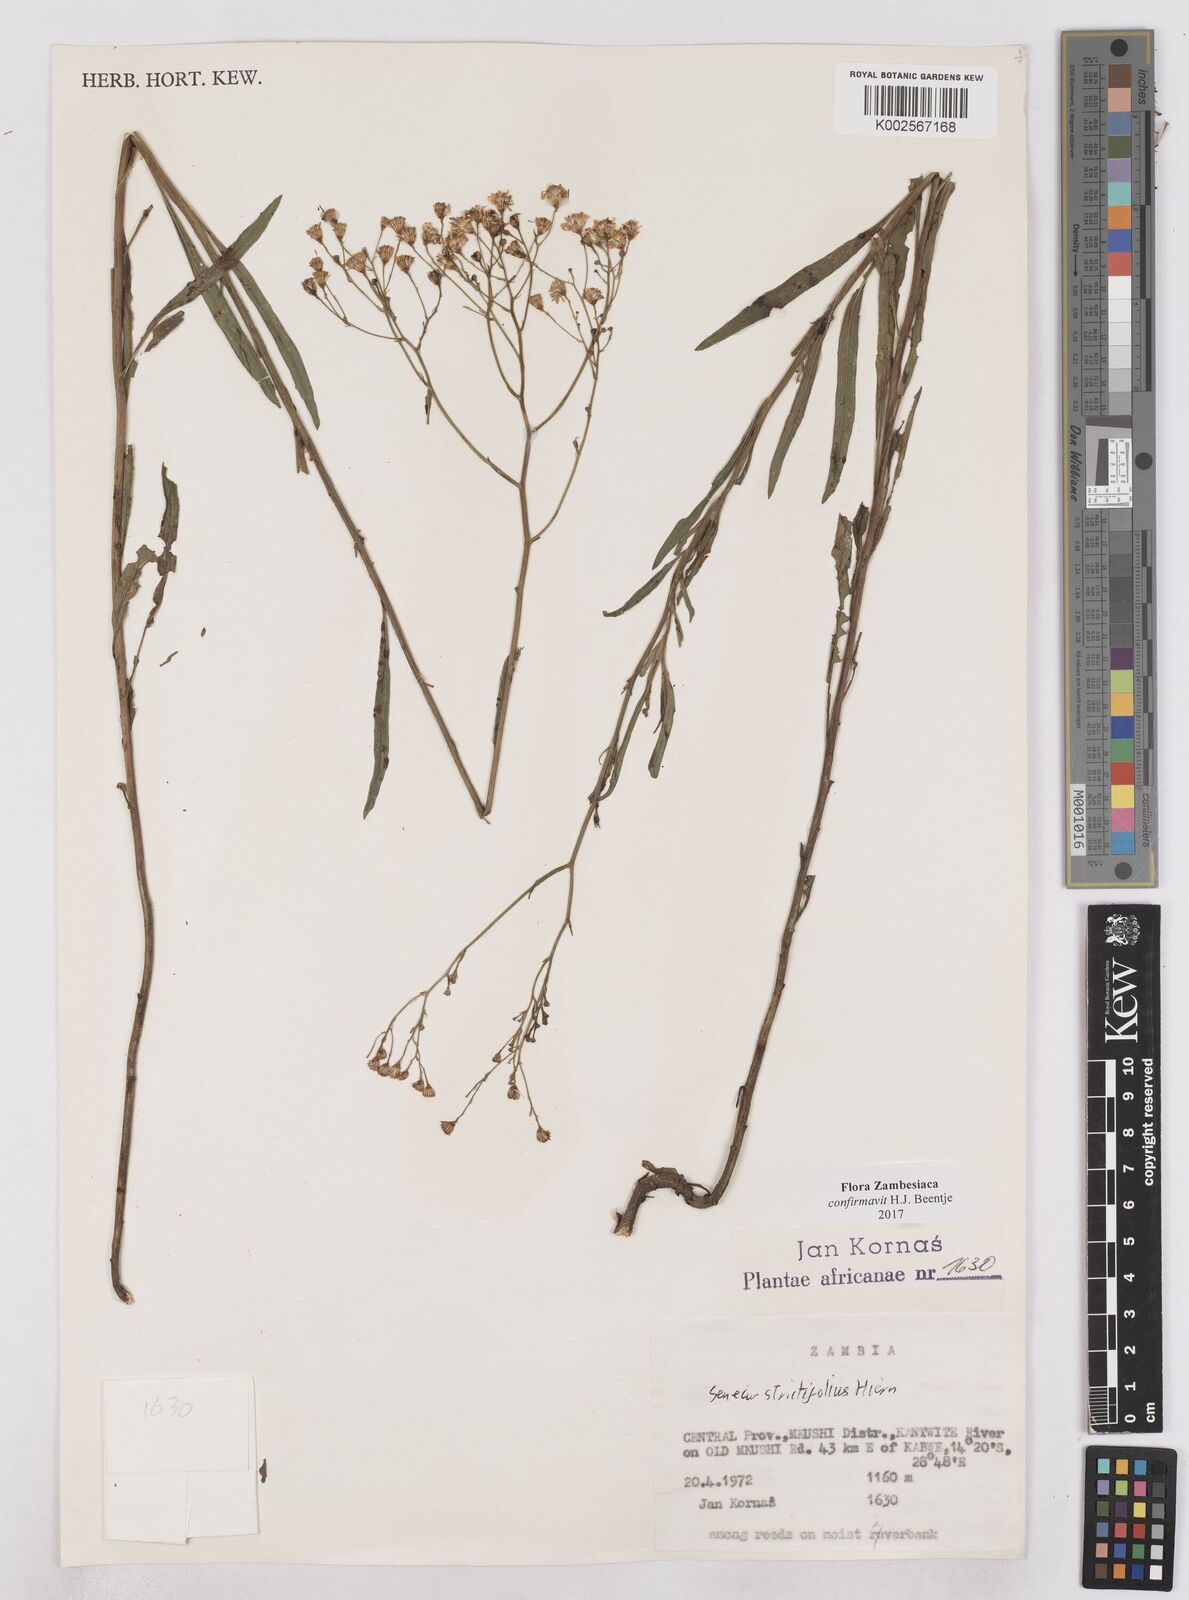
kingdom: Plantae
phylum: Tracheophyta
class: Magnoliopsida
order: Asterales
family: Asteraceae
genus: Senecio
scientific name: Senecio strictifolius
